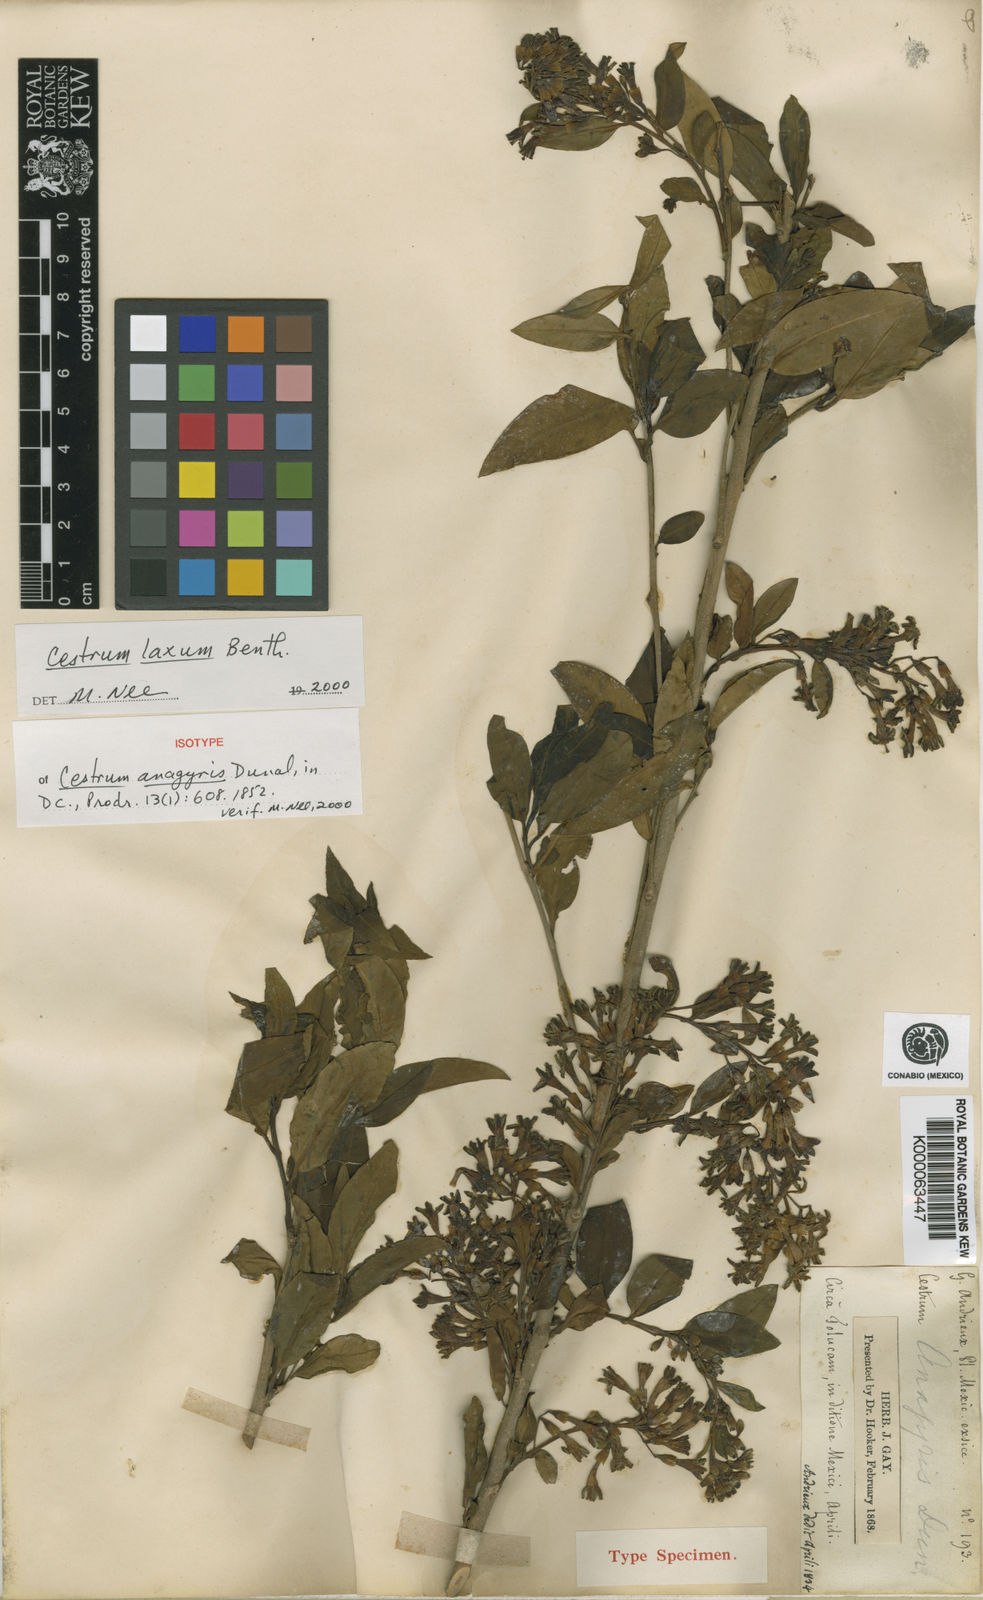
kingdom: Plantae
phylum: Tracheophyta
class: Magnoliopsida
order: Solanales
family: Solanaceae
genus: Cestrum
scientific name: Cestrum aurantiacum
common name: Orange cestrum
